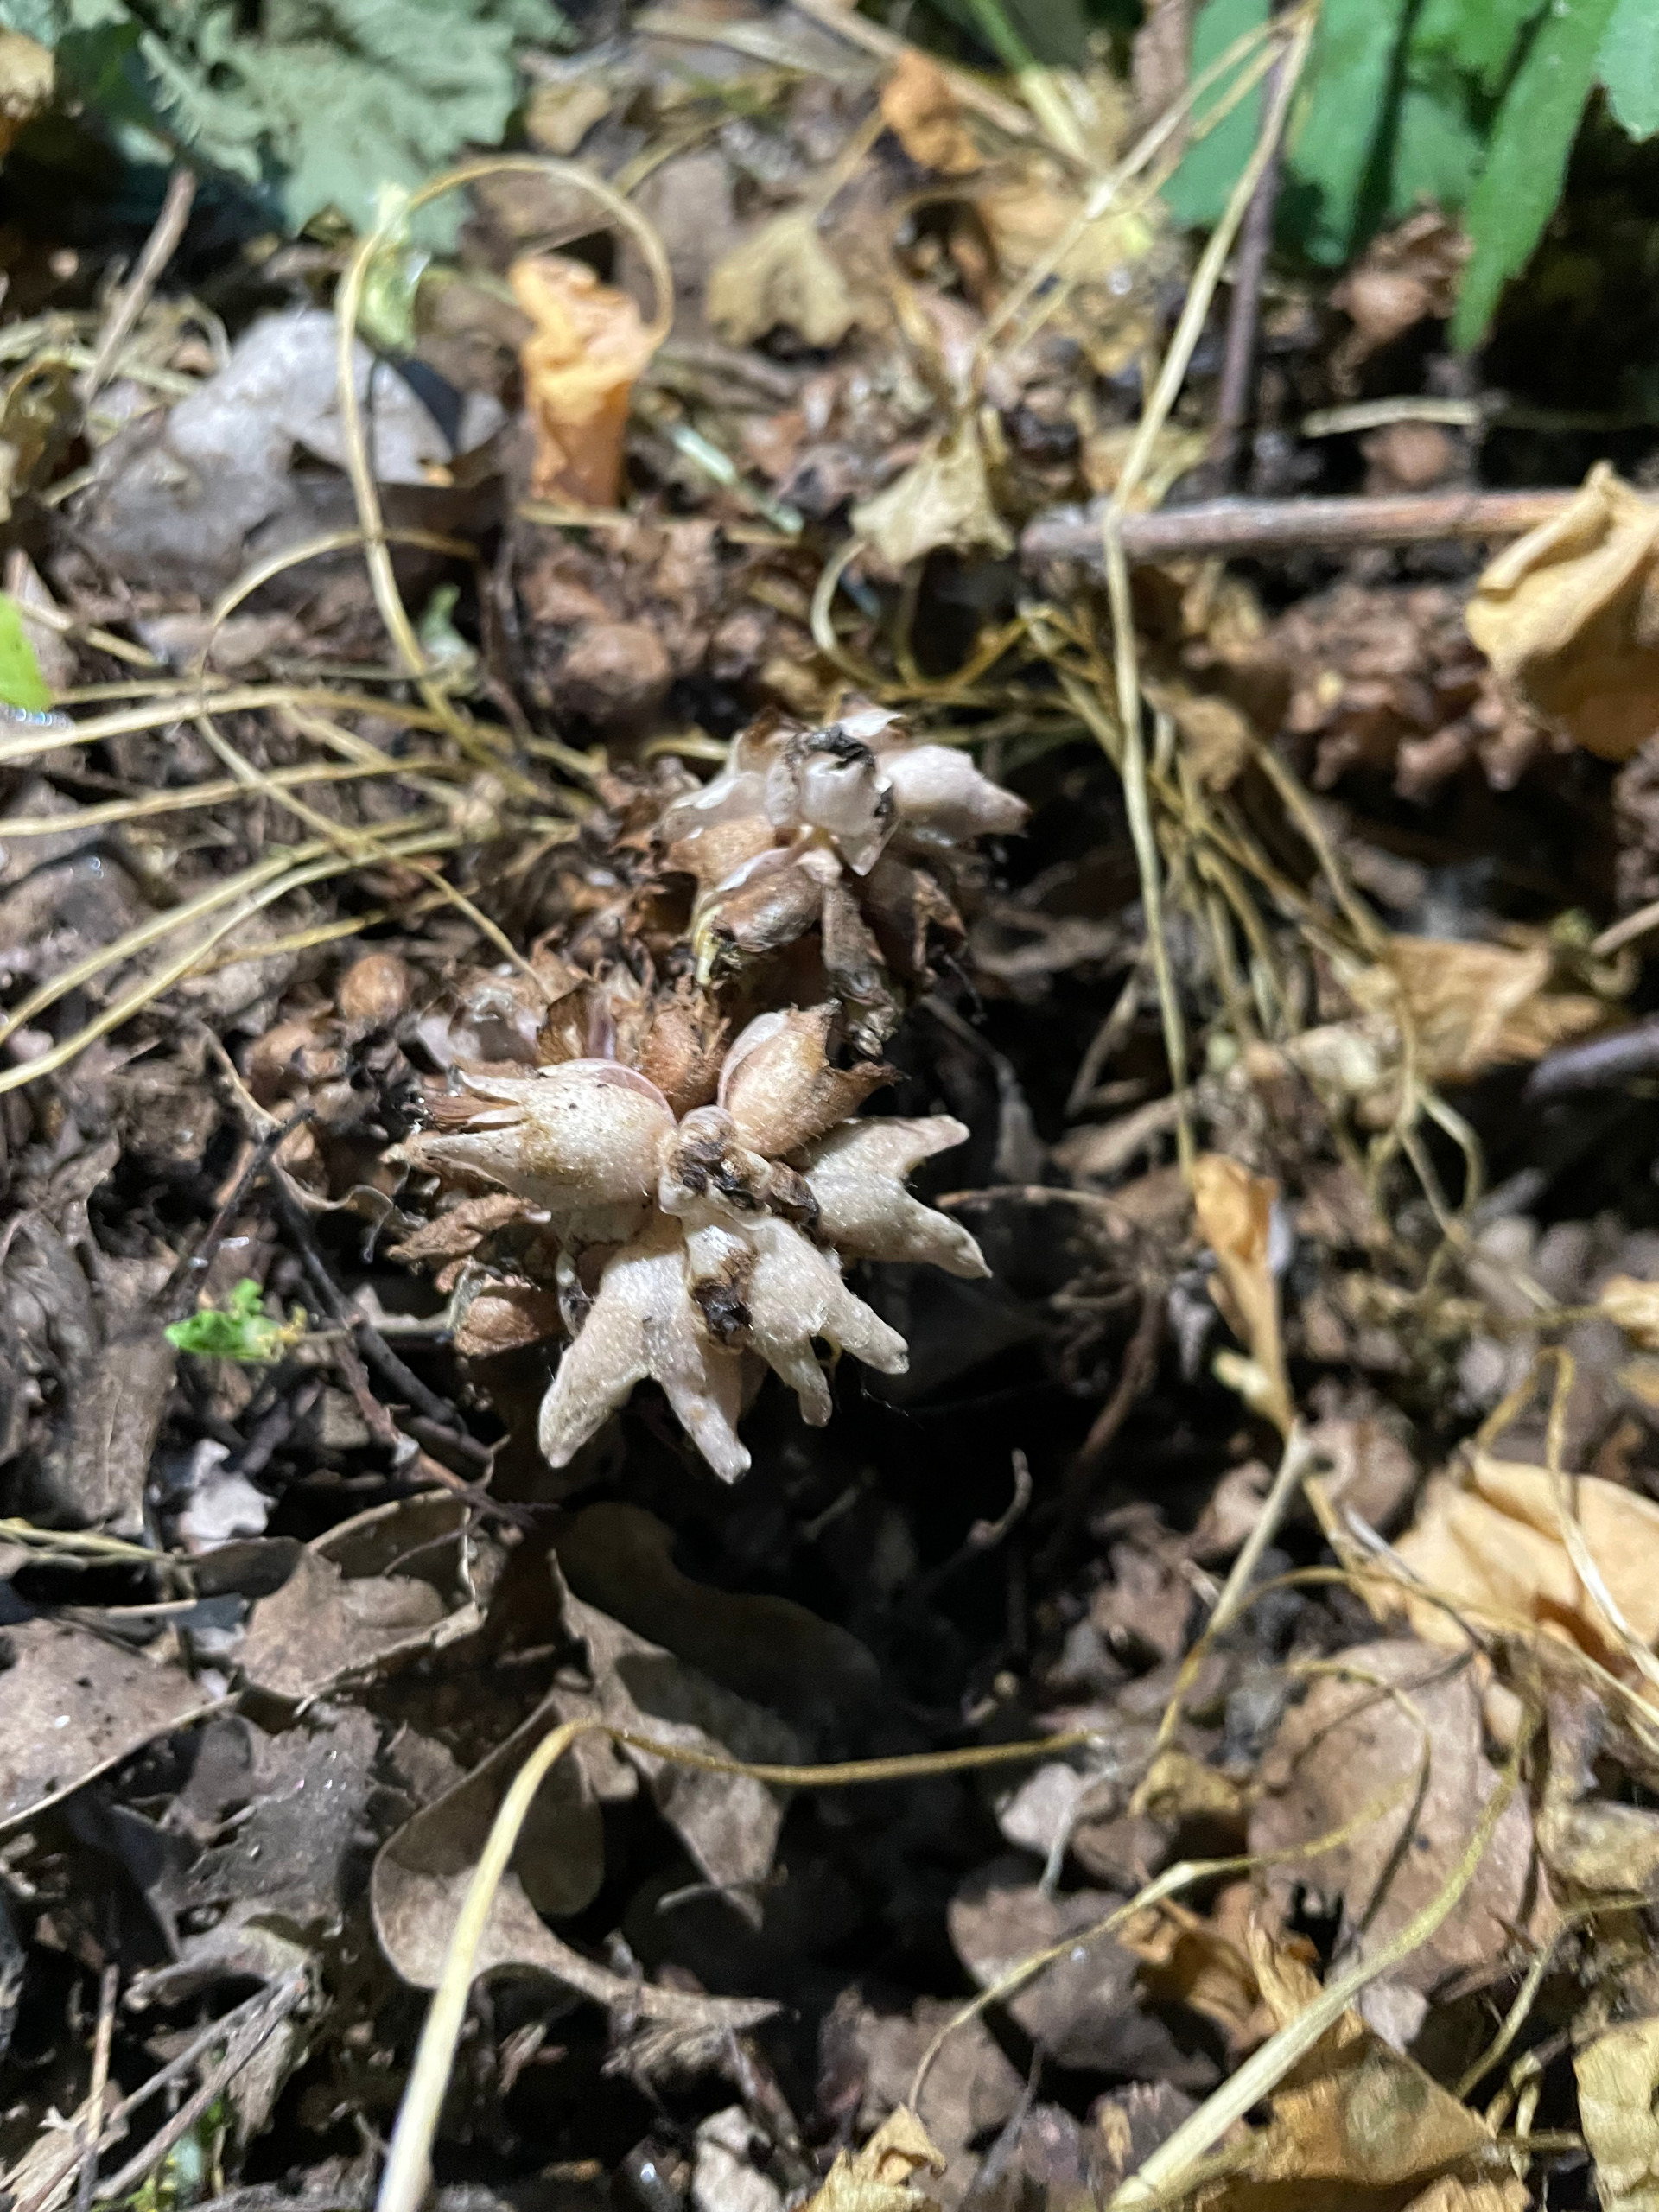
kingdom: Plantae
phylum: Tracheophyta
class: Magnoliopsida
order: Lamiales
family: Orobanchaceae
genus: Lathraea
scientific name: Lathraea squamaria
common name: Skælrod
